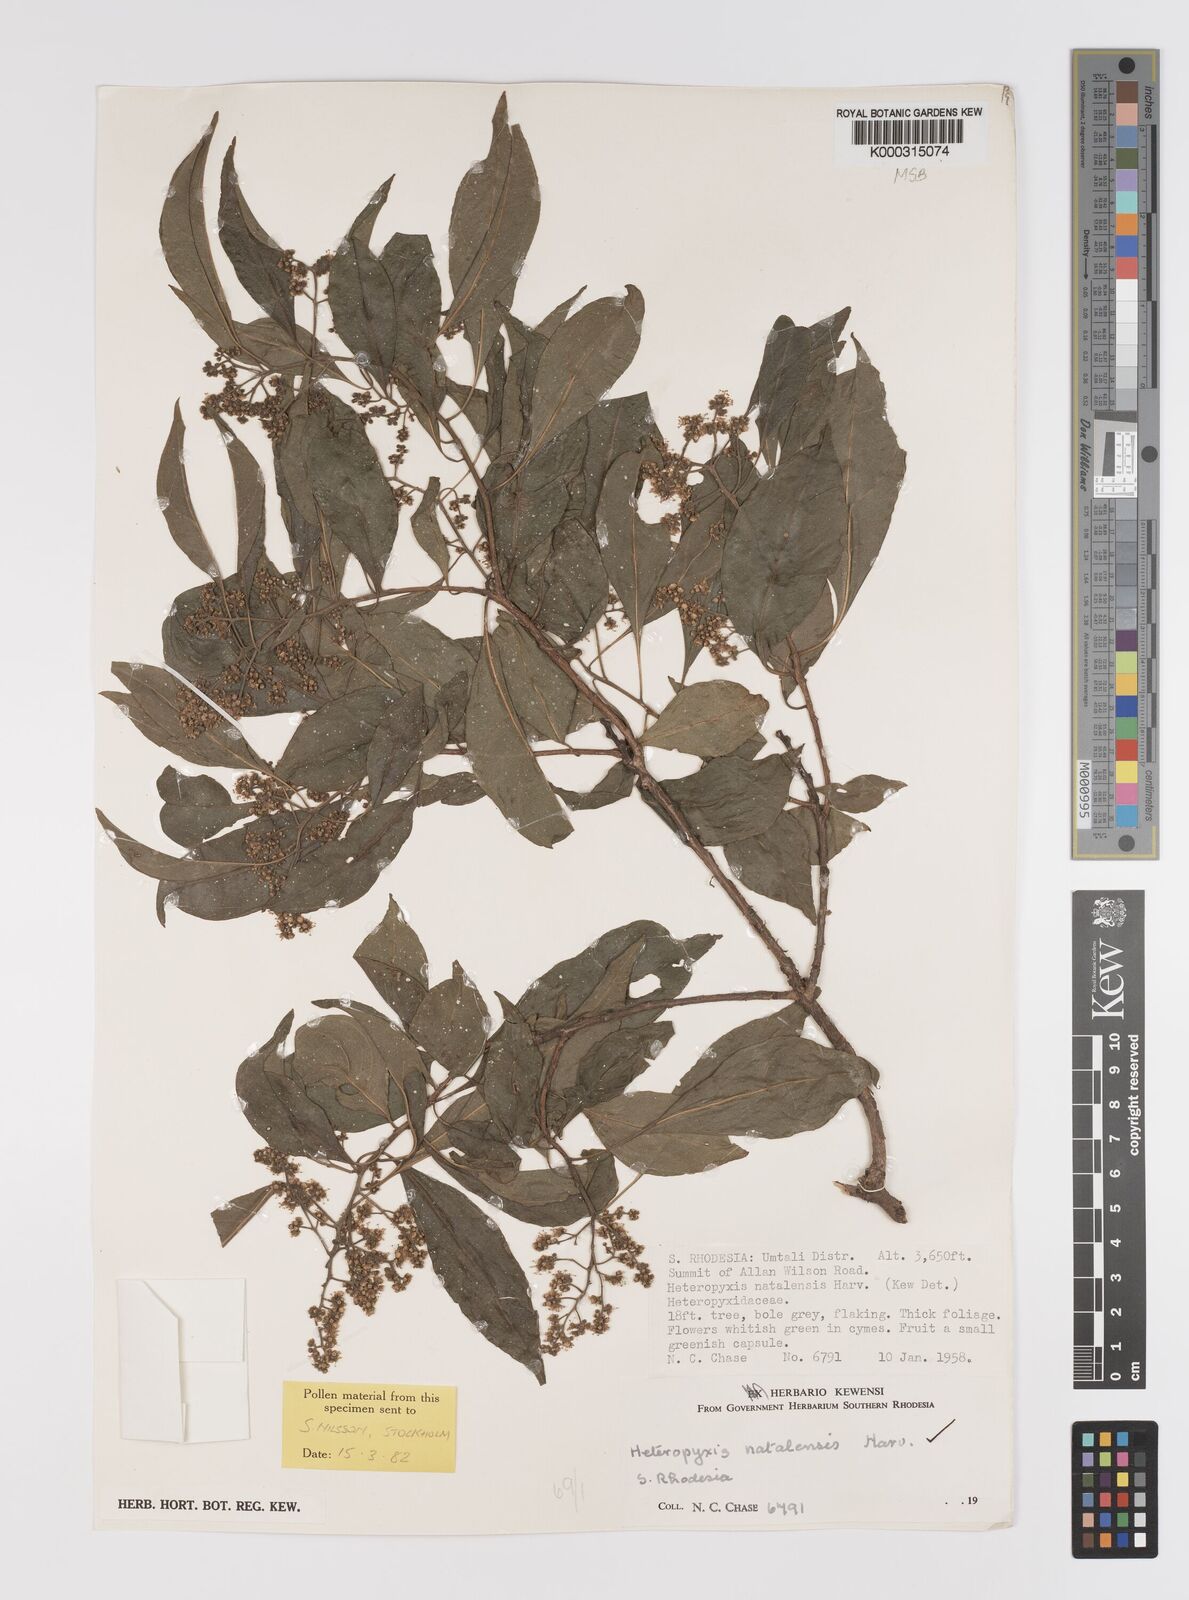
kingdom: Plantae
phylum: Tracheophyta
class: Magnoliopsida
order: Myrtales
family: Myrtaceae
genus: Heteropyxis
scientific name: Heteropyxis dehniae
